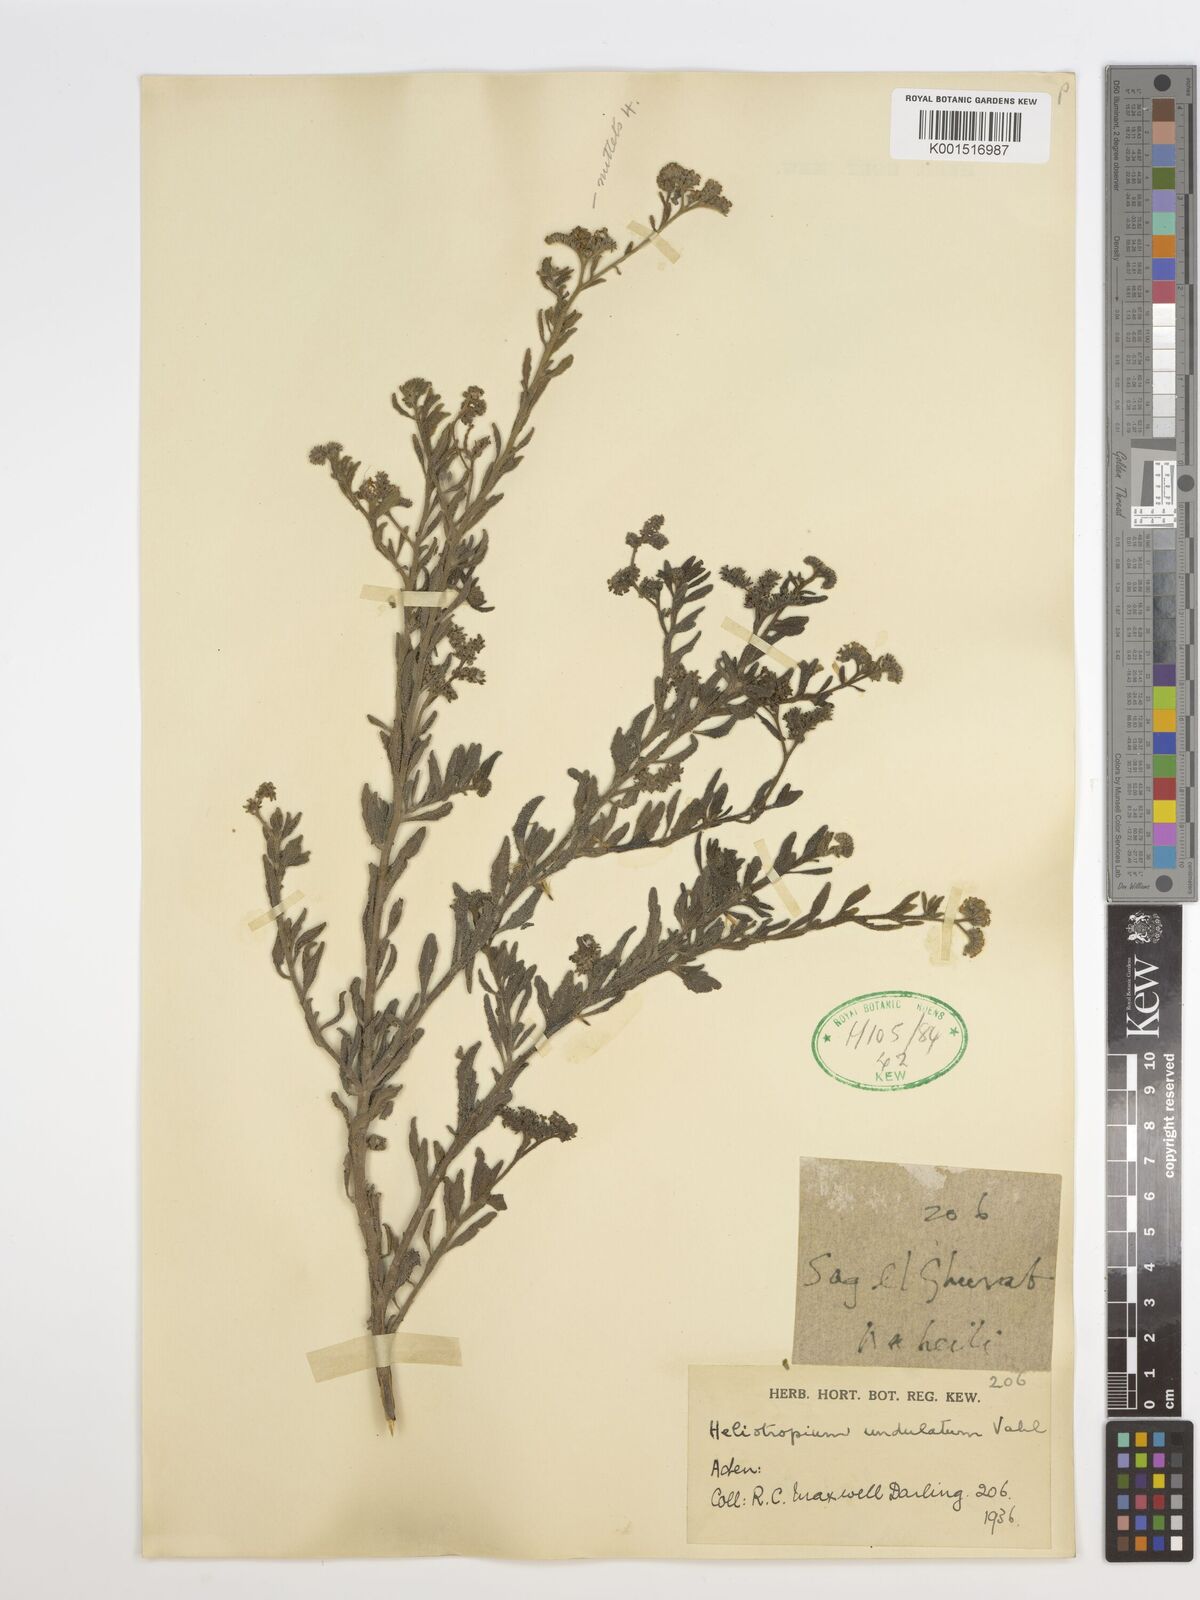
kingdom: Plantae
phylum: Tracheophyta
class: Magnoliopsida
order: Boraginales
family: Heliotropiaceae
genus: Heliotropium
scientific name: Heliotropium bacciferum
